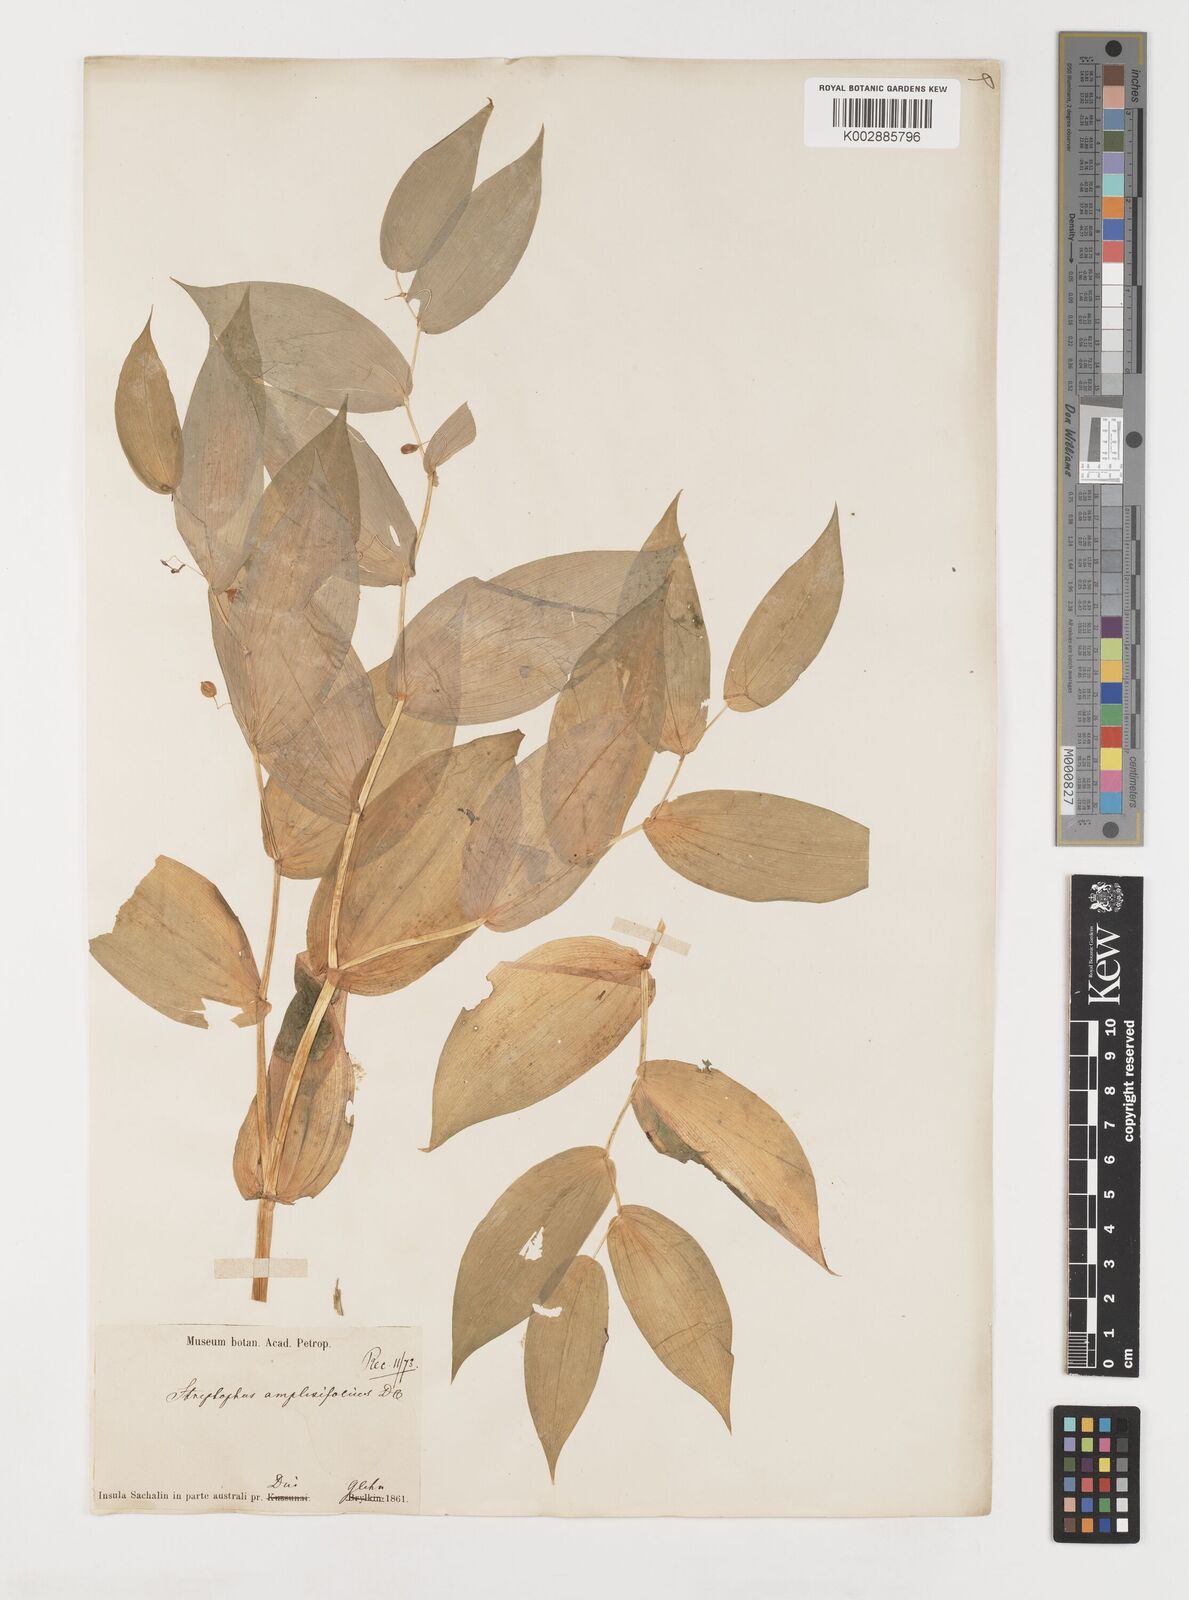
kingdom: Plantae
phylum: Tracheophyta
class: Liliopsida
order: Liliales
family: Liliaceae
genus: Streptopus
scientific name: Streptopus amplexifolius
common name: Clasp twisted stalk
